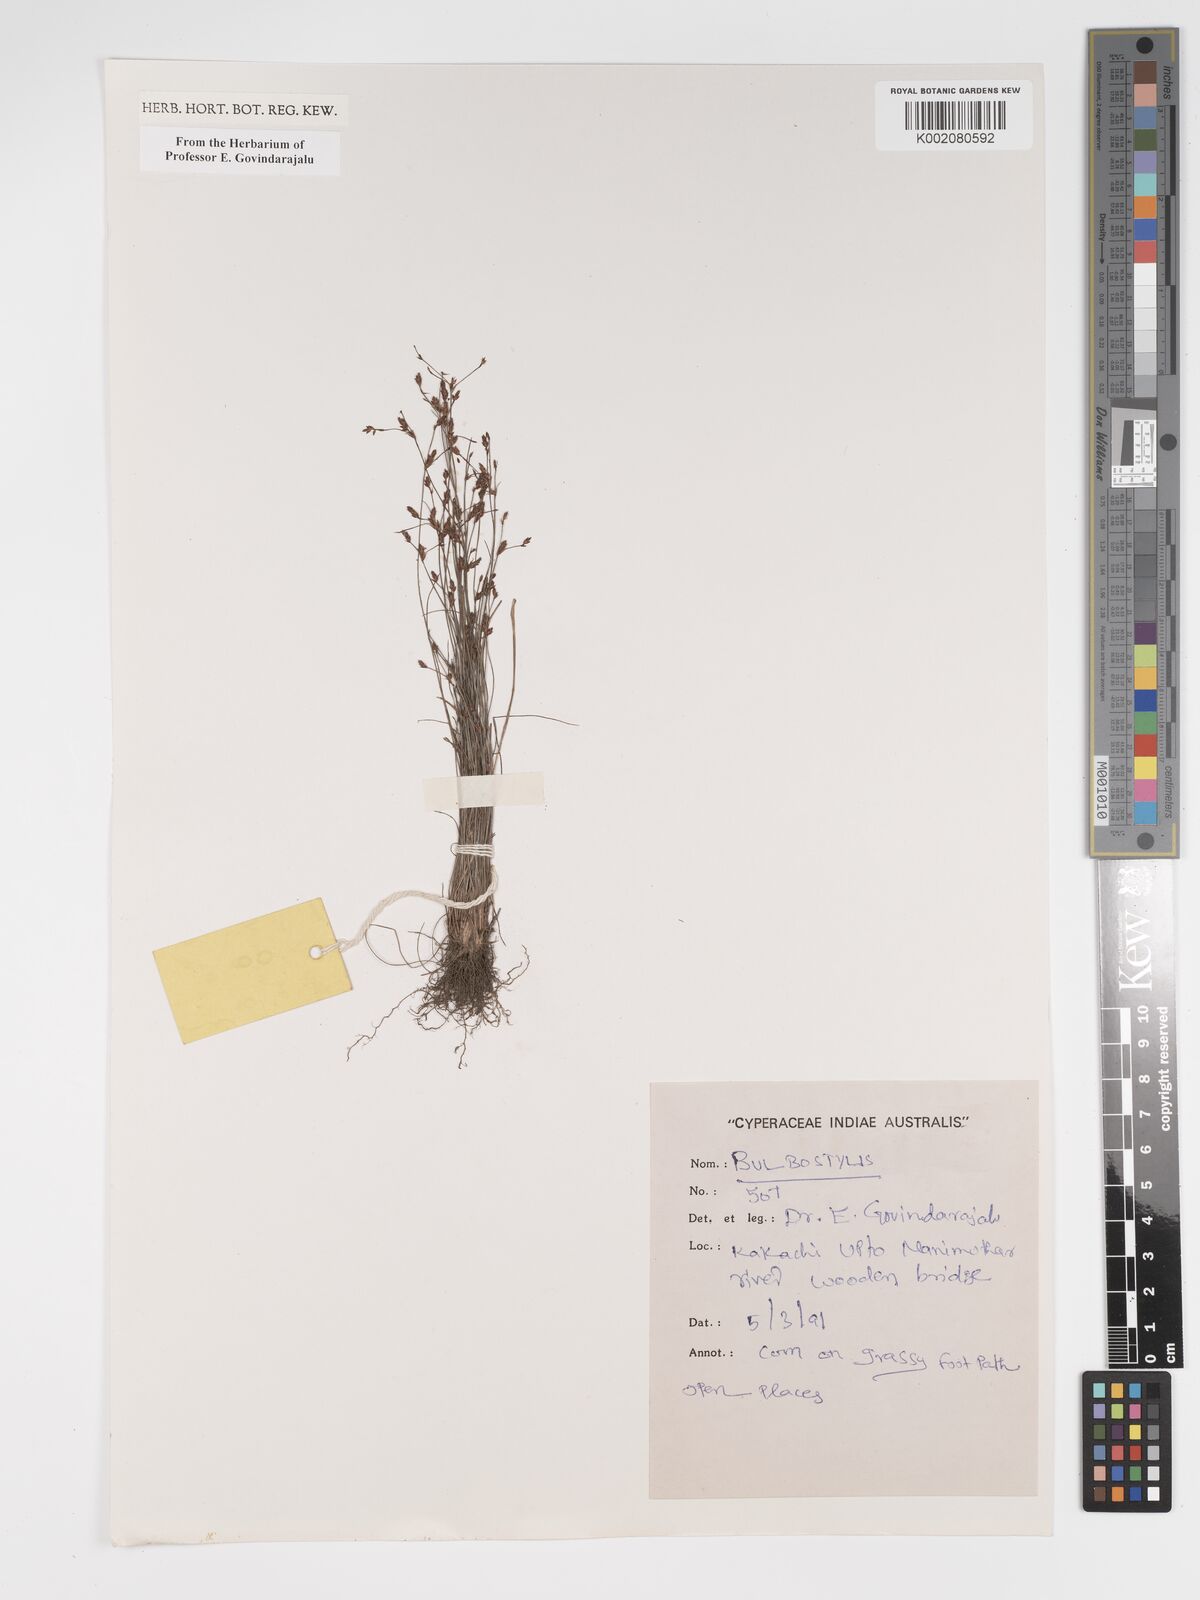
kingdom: Plantae
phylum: Tracheophyta
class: Liliopsida
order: Poales
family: Cyperaceae
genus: Bulbostylis
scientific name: Bulbostylis
